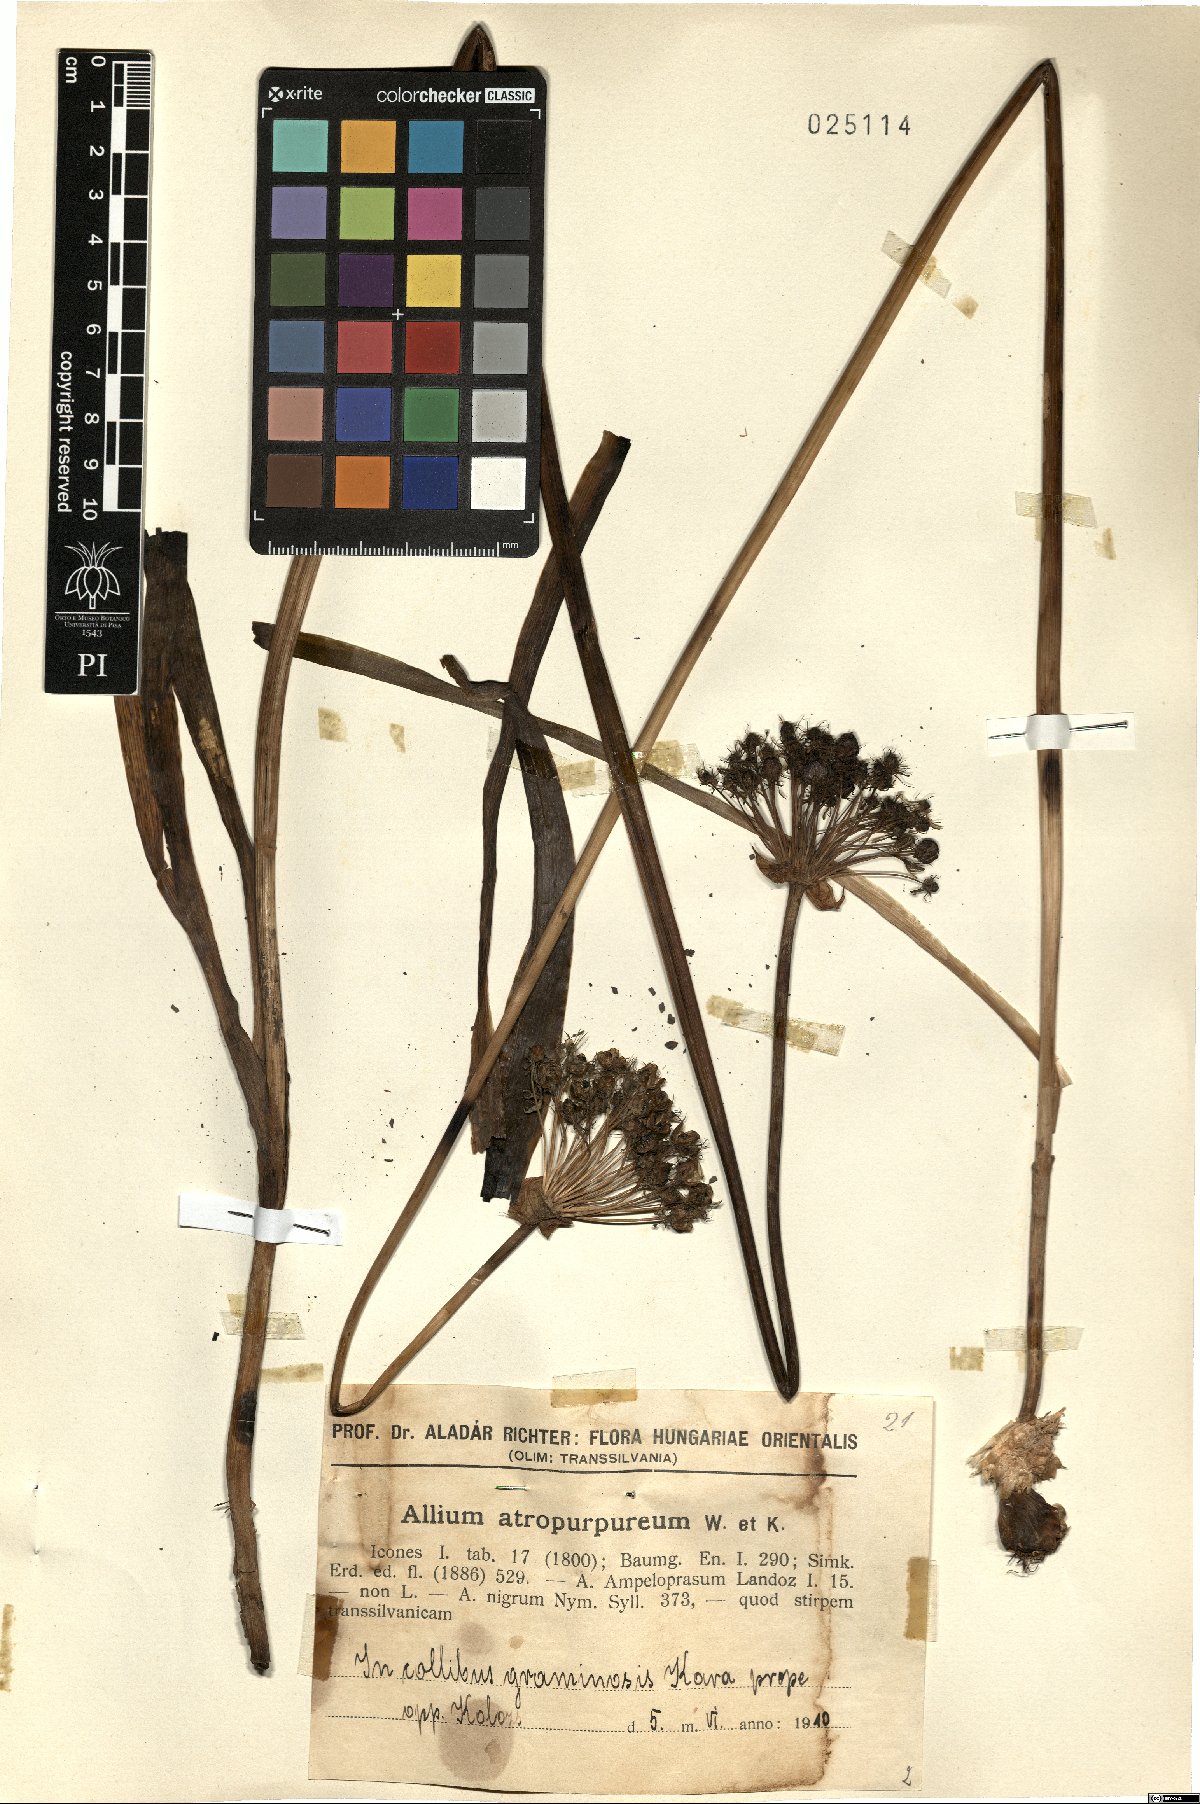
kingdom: Plantae
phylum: Tracheophyta
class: Liliopsida
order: Asparagales
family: Amaryllidaceae
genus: Allium
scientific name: Allium atropurpureum
